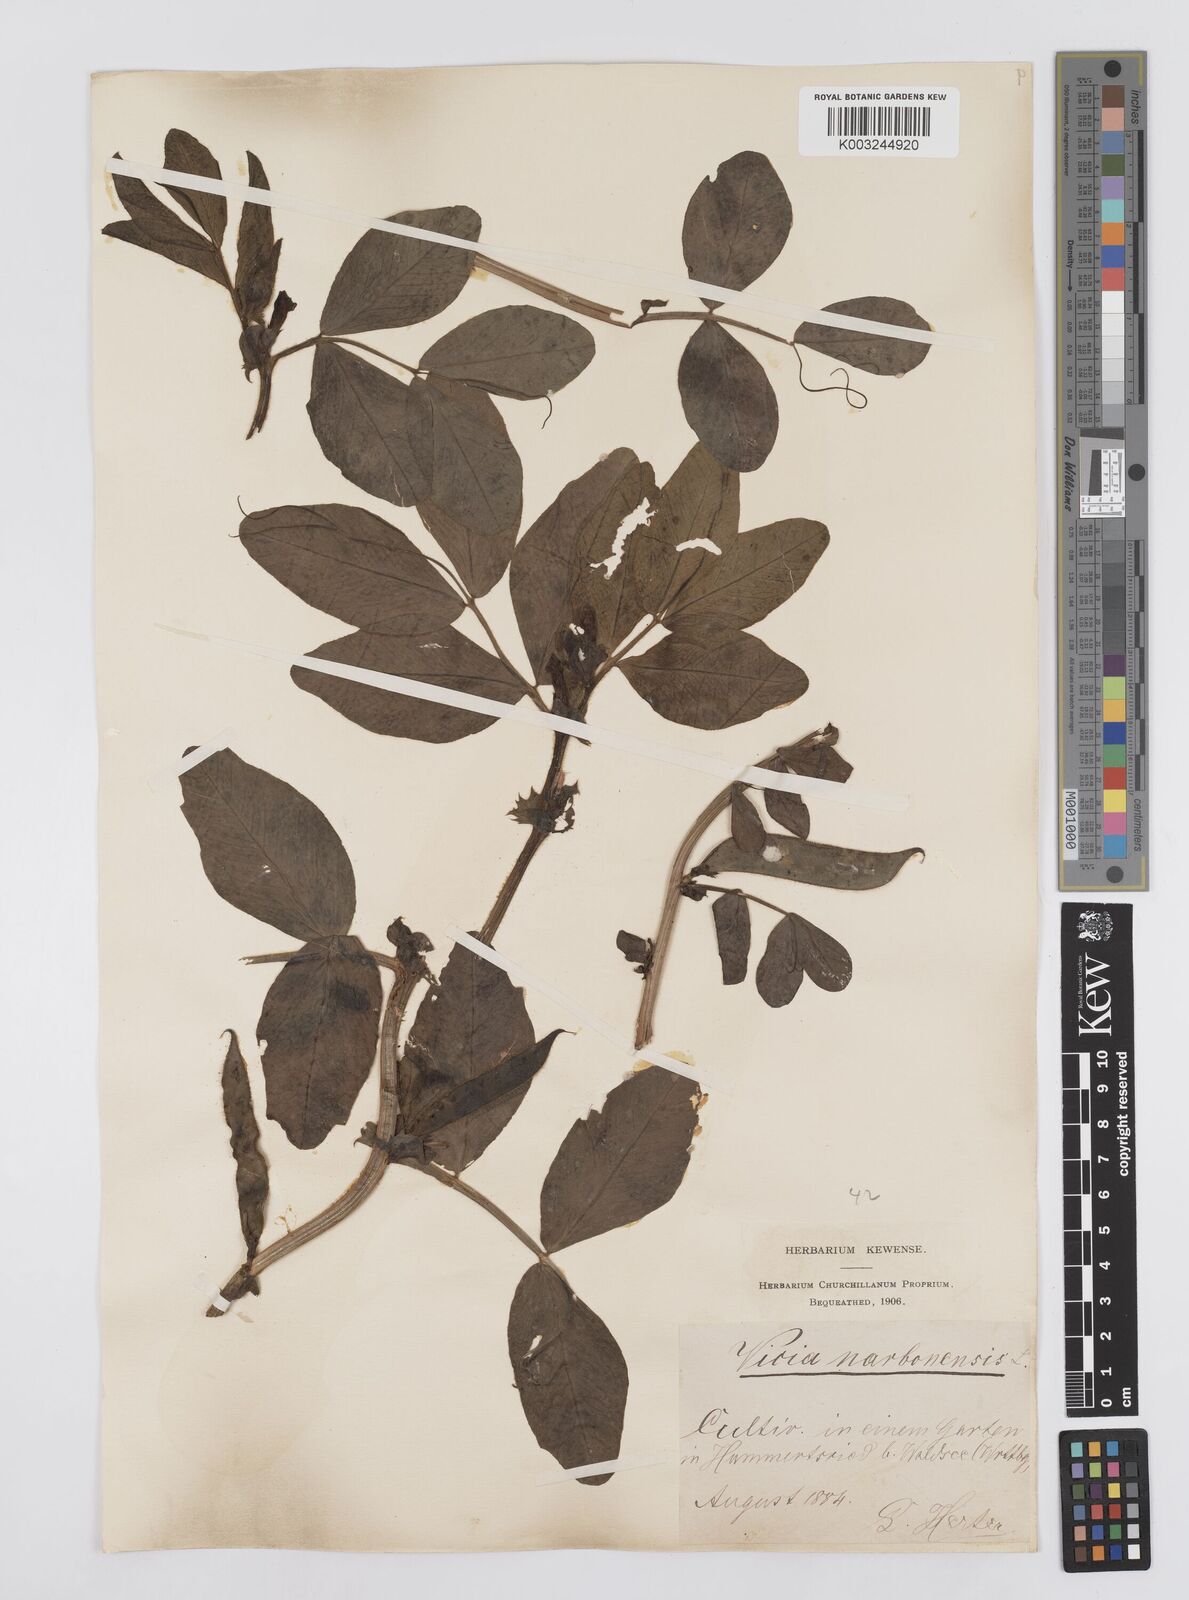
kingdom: Plantae
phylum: Tracheophyta
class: Magnoliopsida
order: Fabales
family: Fabaceae
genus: Vicia
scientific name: Vicia narbonensis
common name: Narbonne vetch
